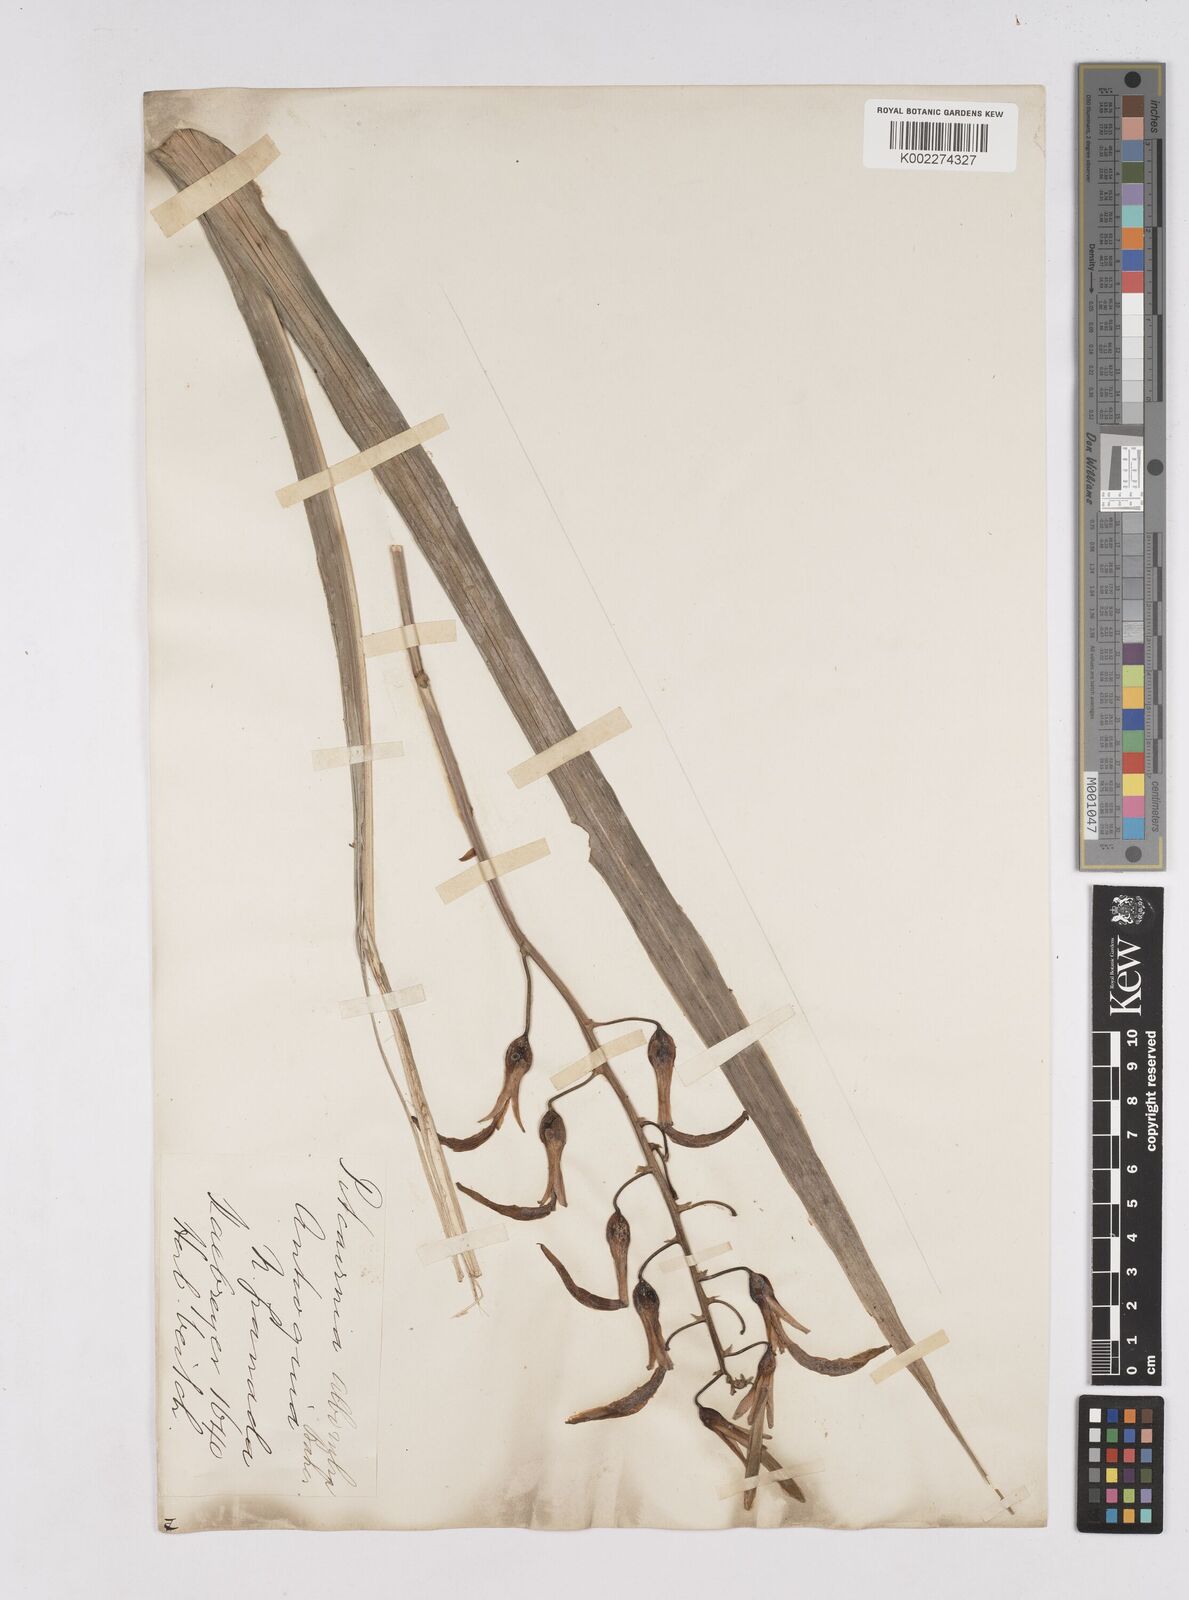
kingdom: Plantae
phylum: Tracheophyta
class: Liliopsida
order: Poales
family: Bromeliaceae
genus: Pitcairnia
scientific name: Pitcairnia alborubra
